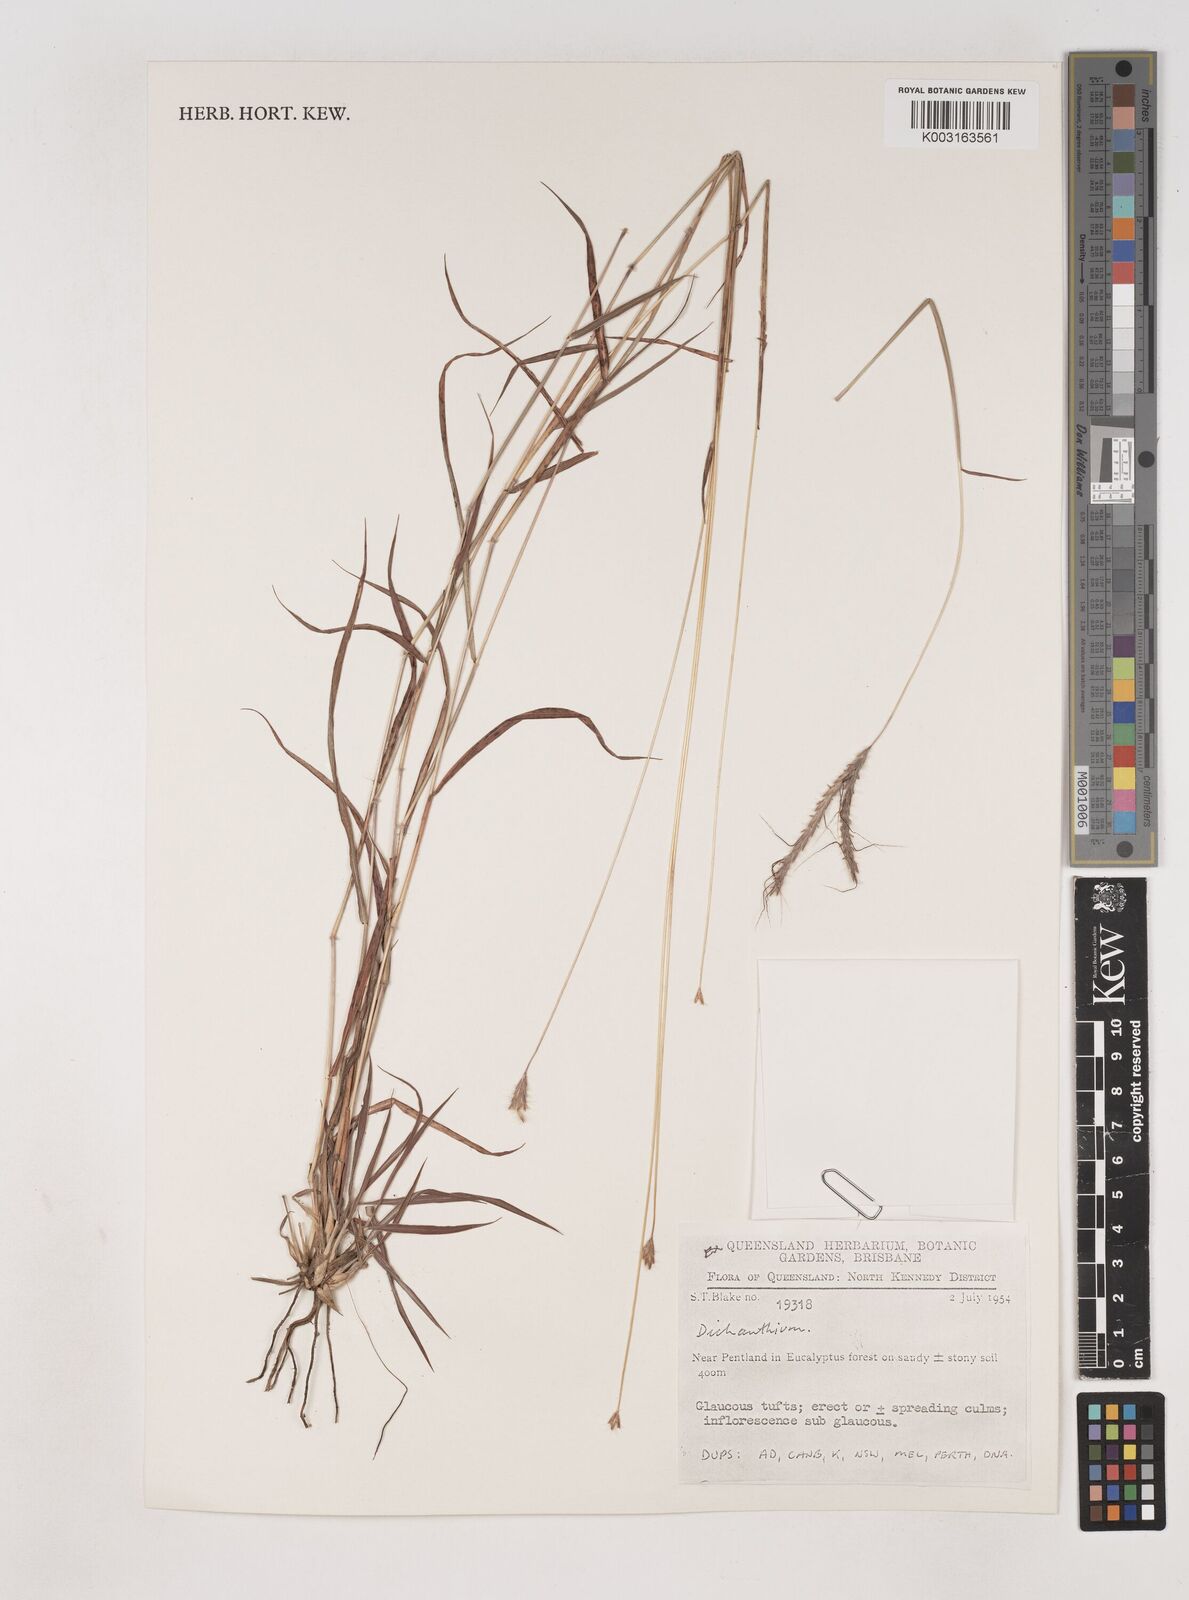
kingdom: Plantae
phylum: Tracheophyta
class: Liliopsida
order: Poales
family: Poaceae
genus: Dichanthium
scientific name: Dichanthium
